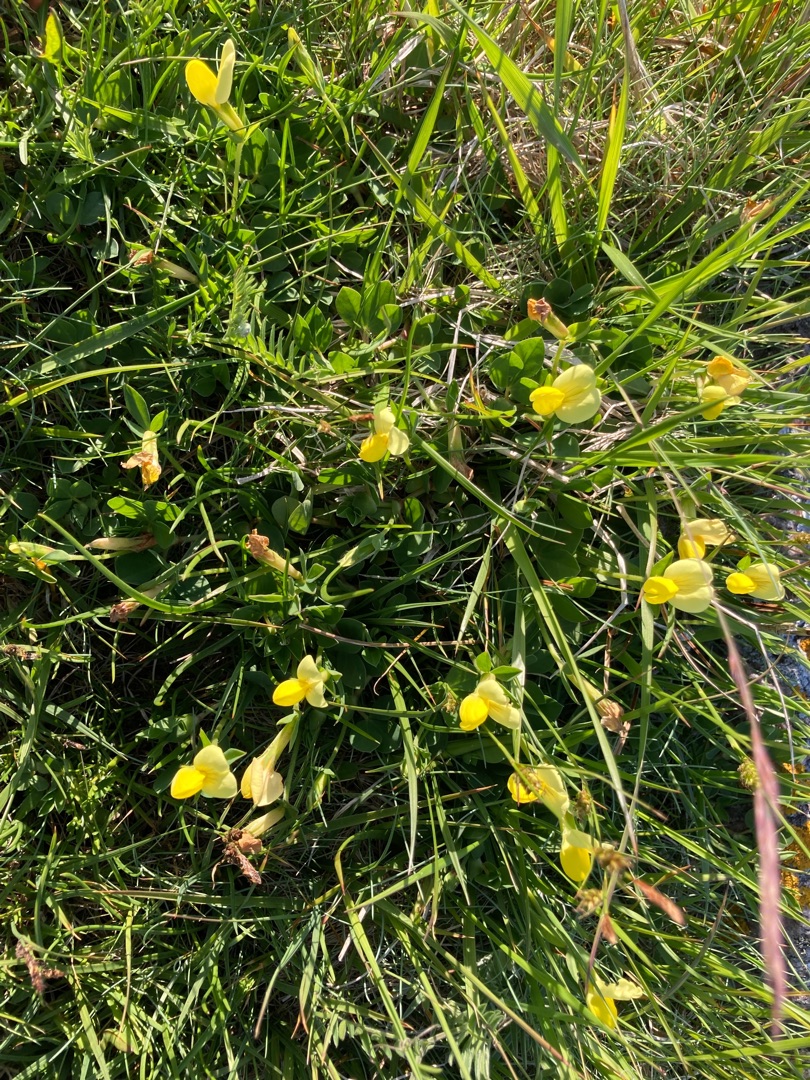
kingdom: Plantae
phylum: Tracheophyta
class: Magnoliopsida
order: Fabales
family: Fabaceae
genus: Lotus
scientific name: Lotus maritimus
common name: Kantbælg
